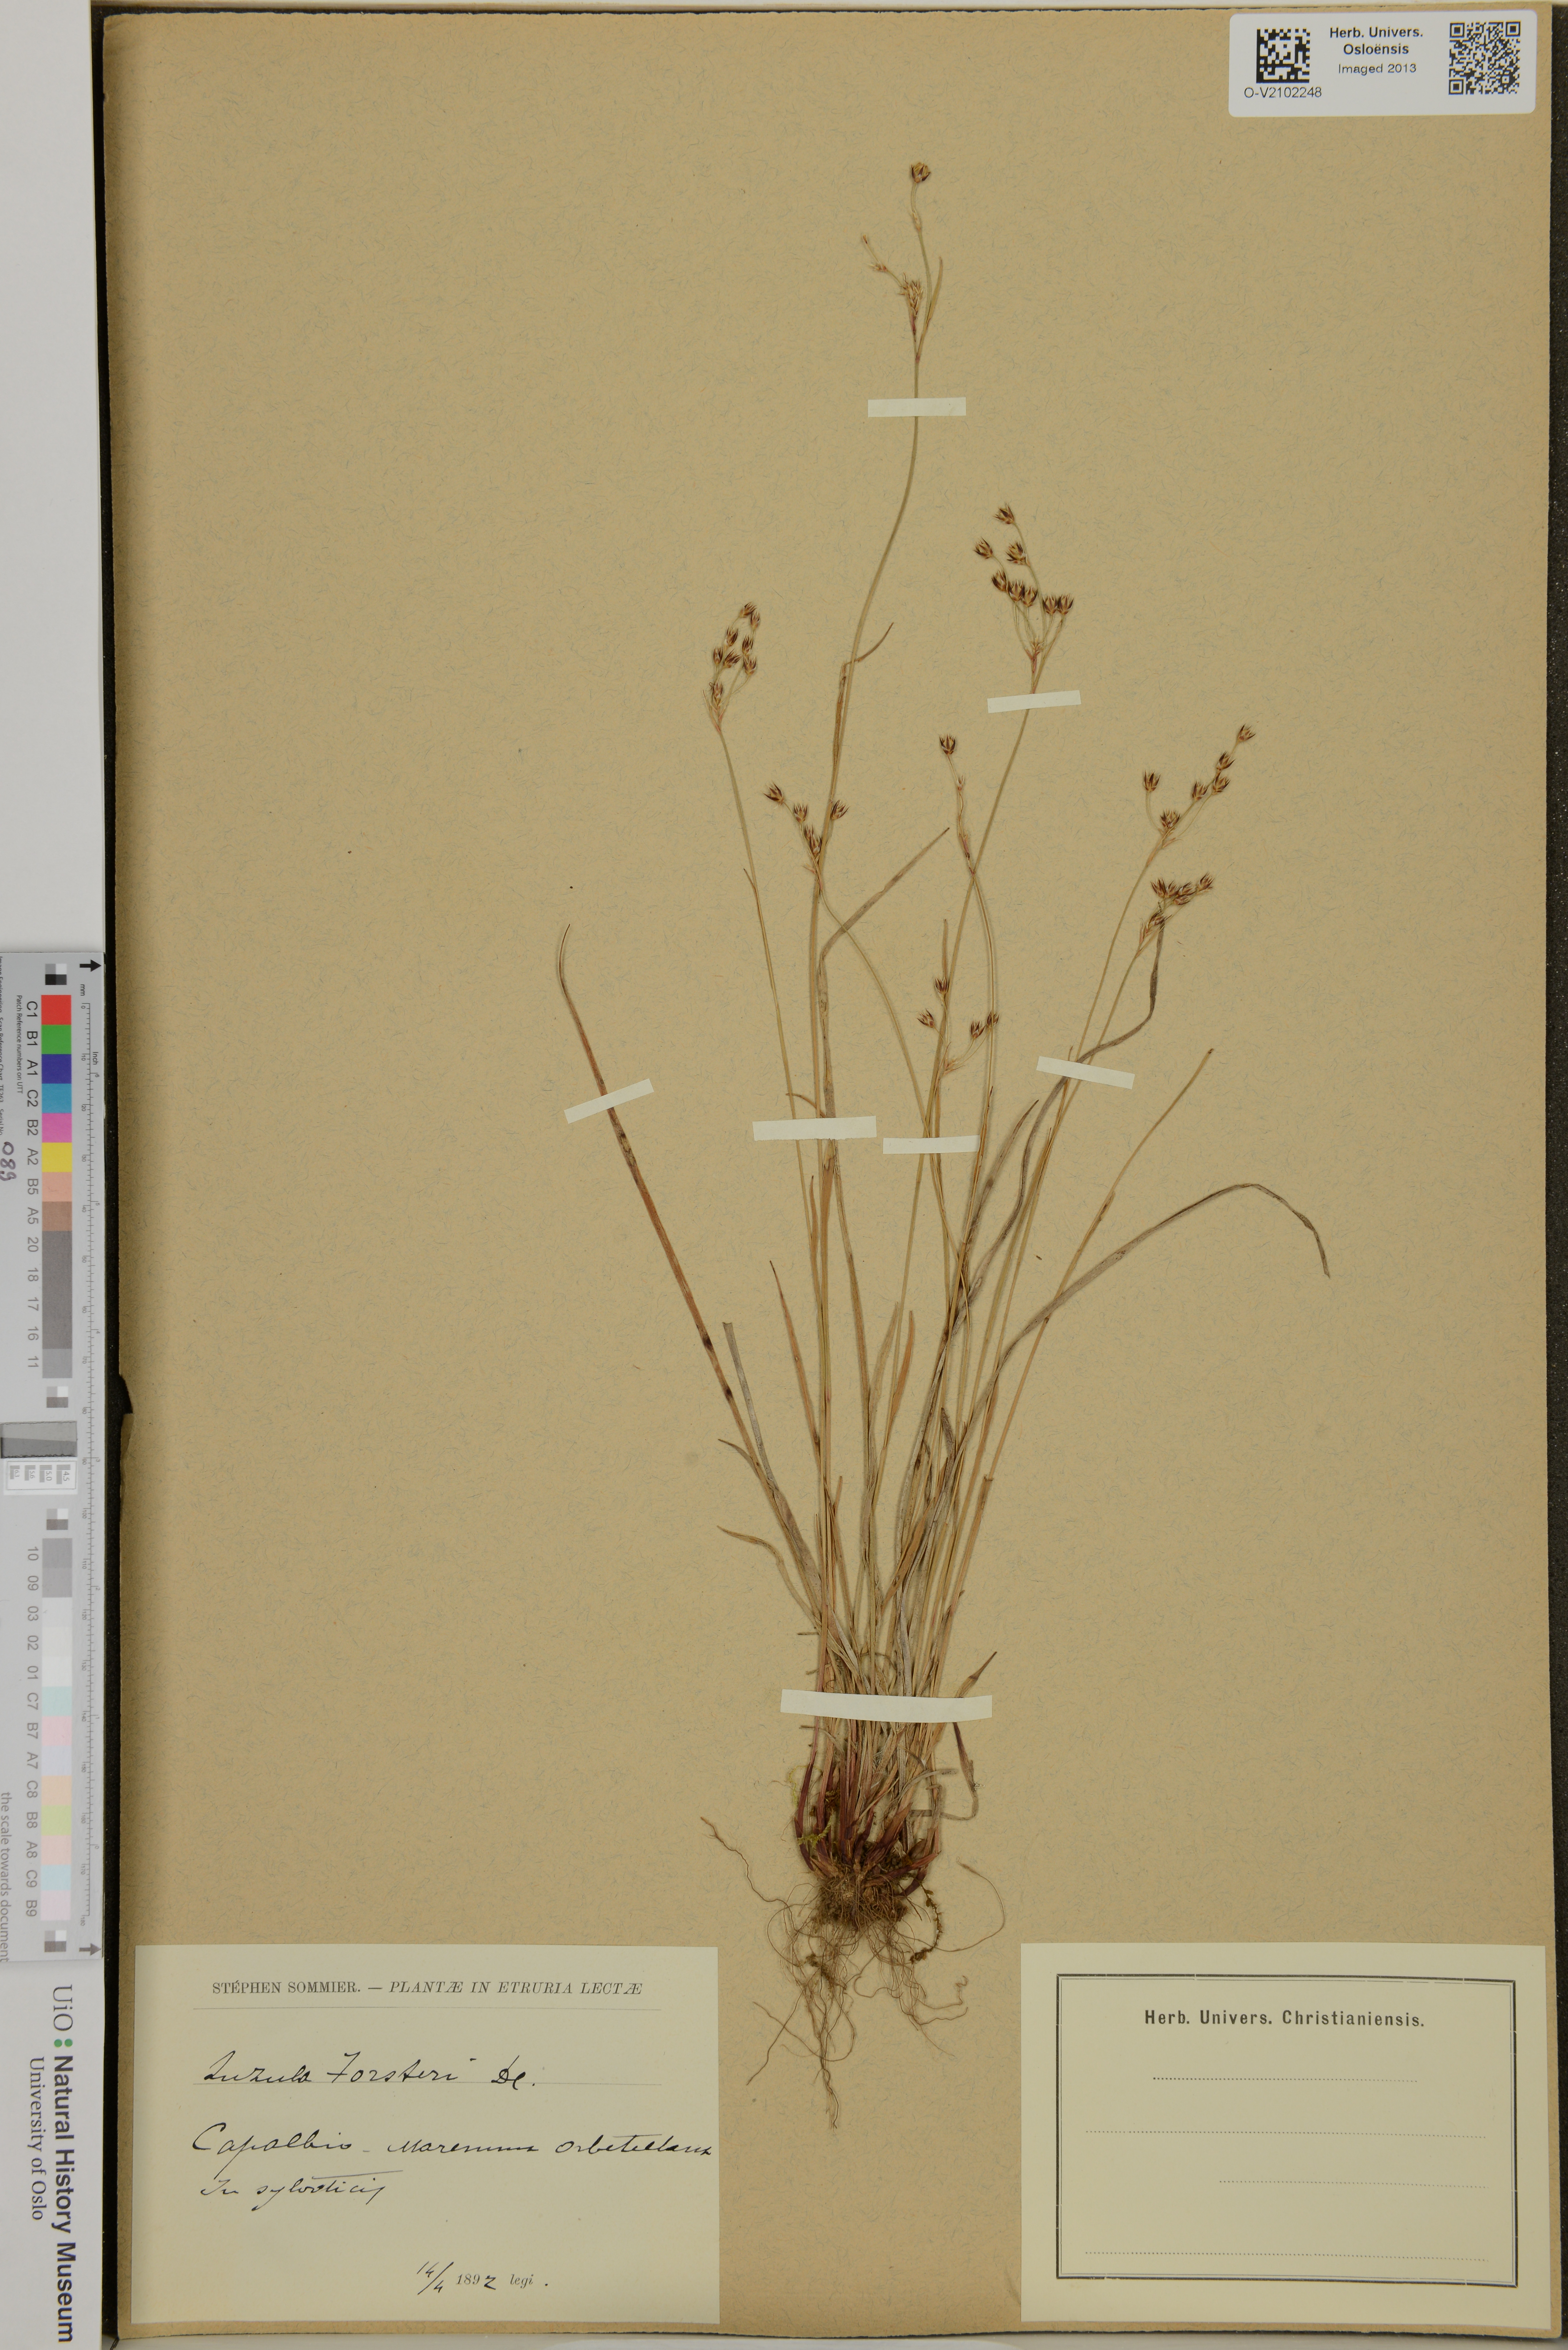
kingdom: Plantae
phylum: Tracheophyta
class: Liliopsida
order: Poales
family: Juncaceae
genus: Luzula
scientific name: Luzula forsteri
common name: Southern wood-rush
